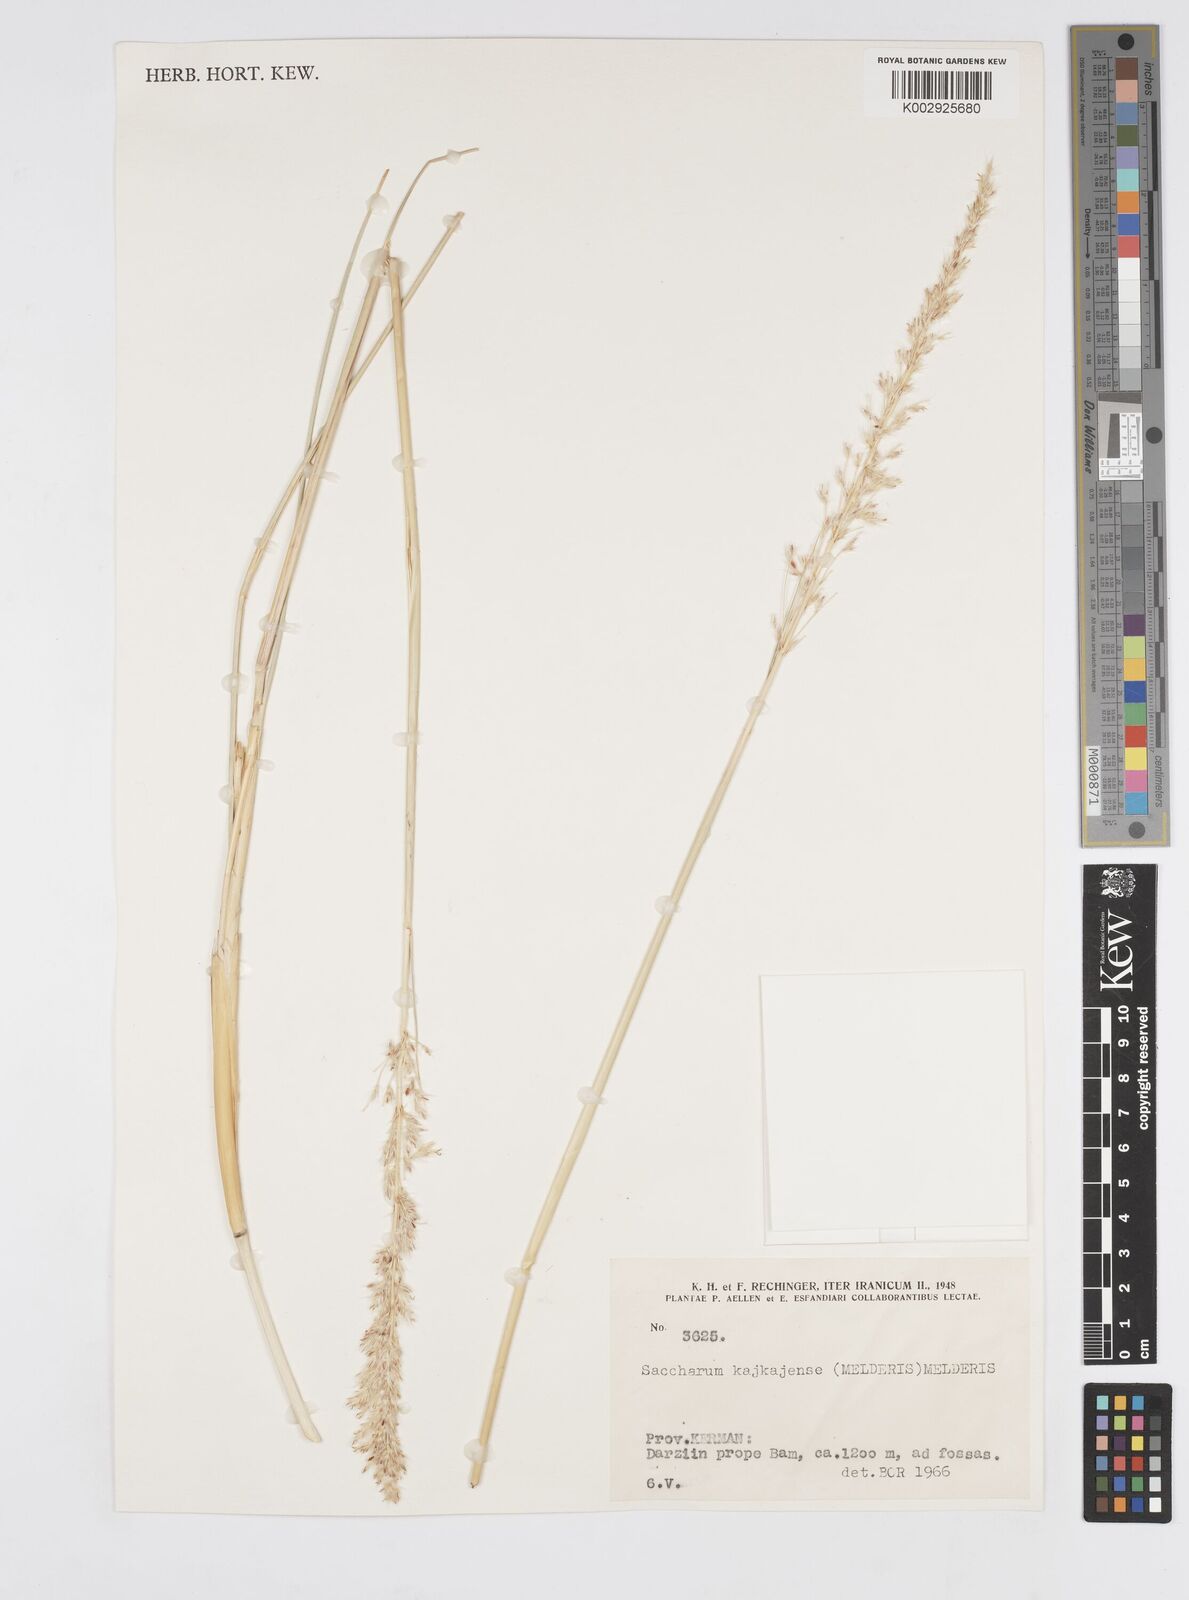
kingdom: Plantae
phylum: Tracheophyta
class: Liliopsida
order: Poales
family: Poaceae
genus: Saccharum
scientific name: Saccharum kajkaiense
